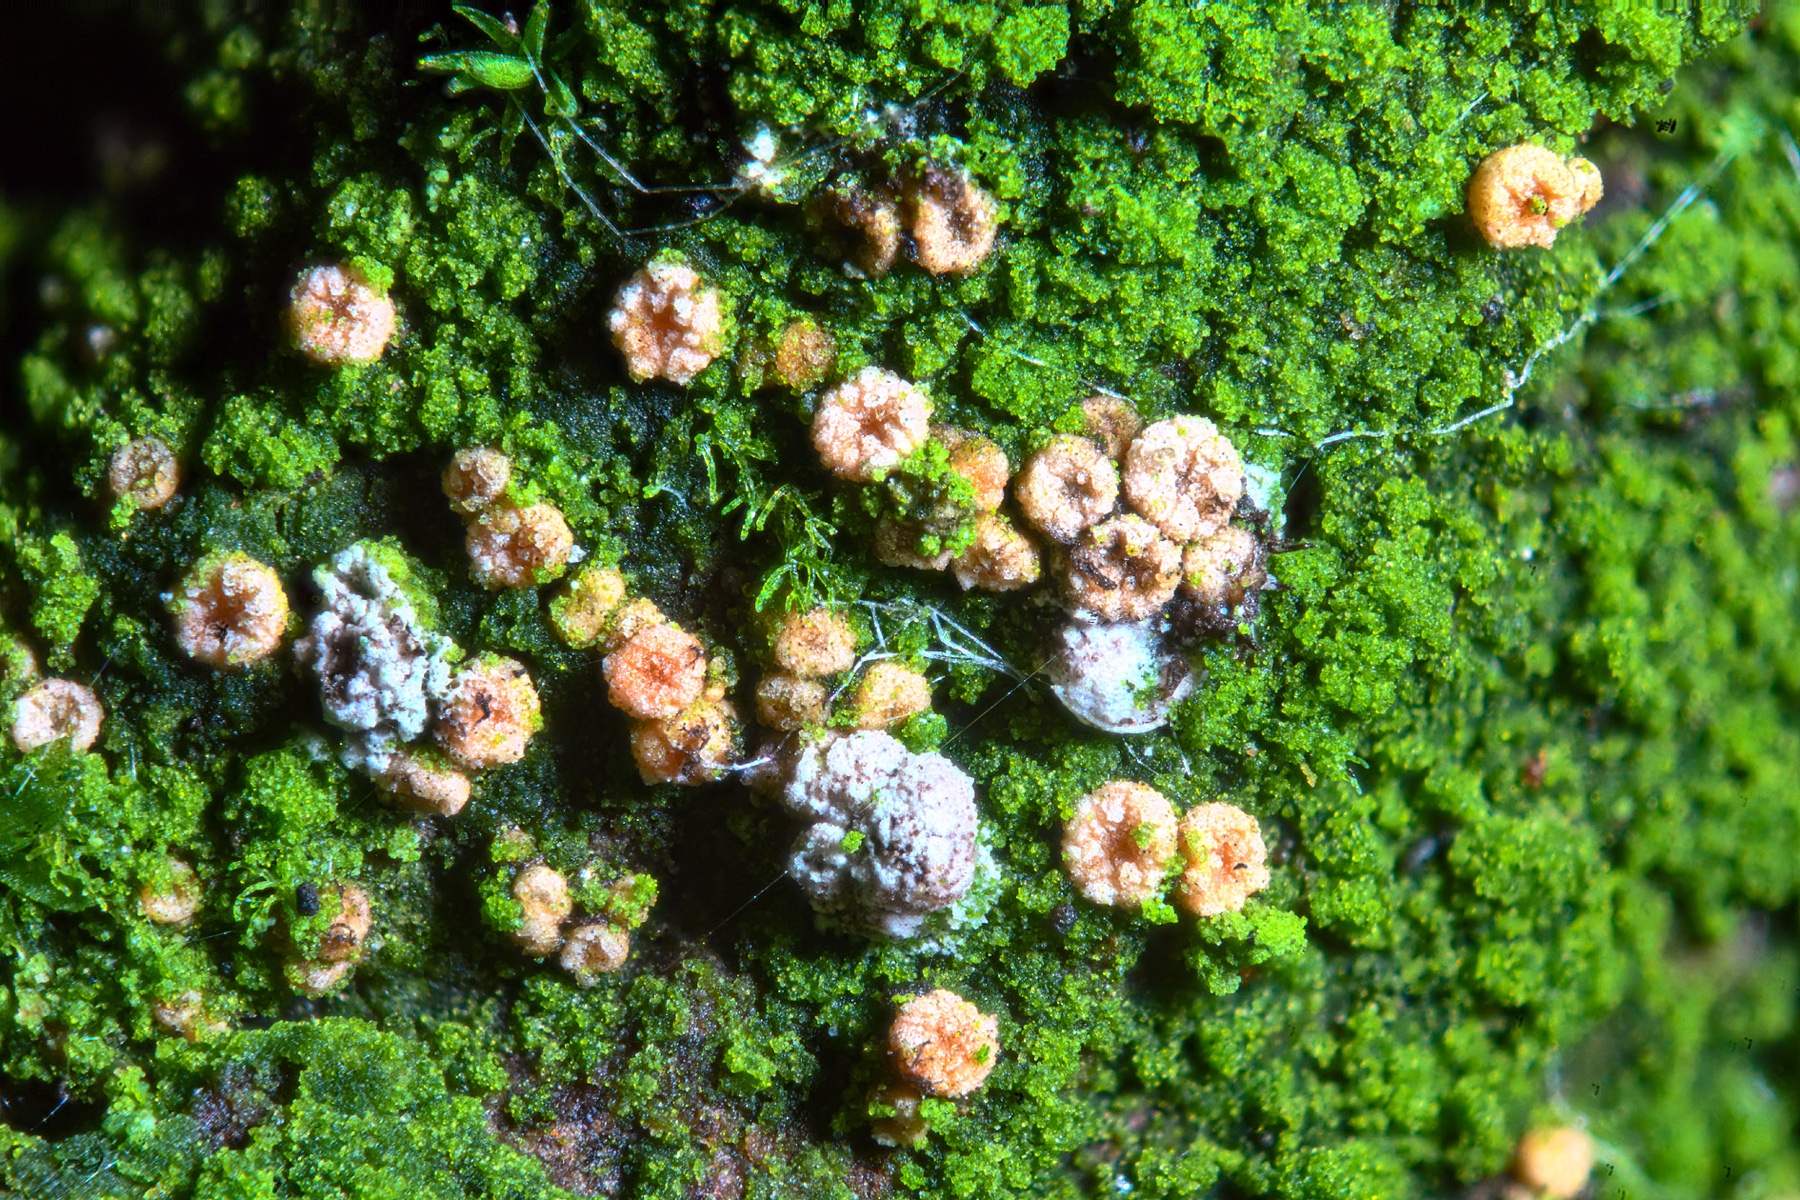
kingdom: Fungi
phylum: Ascomycota
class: Sordariomycetes
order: Hypocreales
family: Bionectriaceae
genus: Bionectria
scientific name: Bionectria ralfsii
